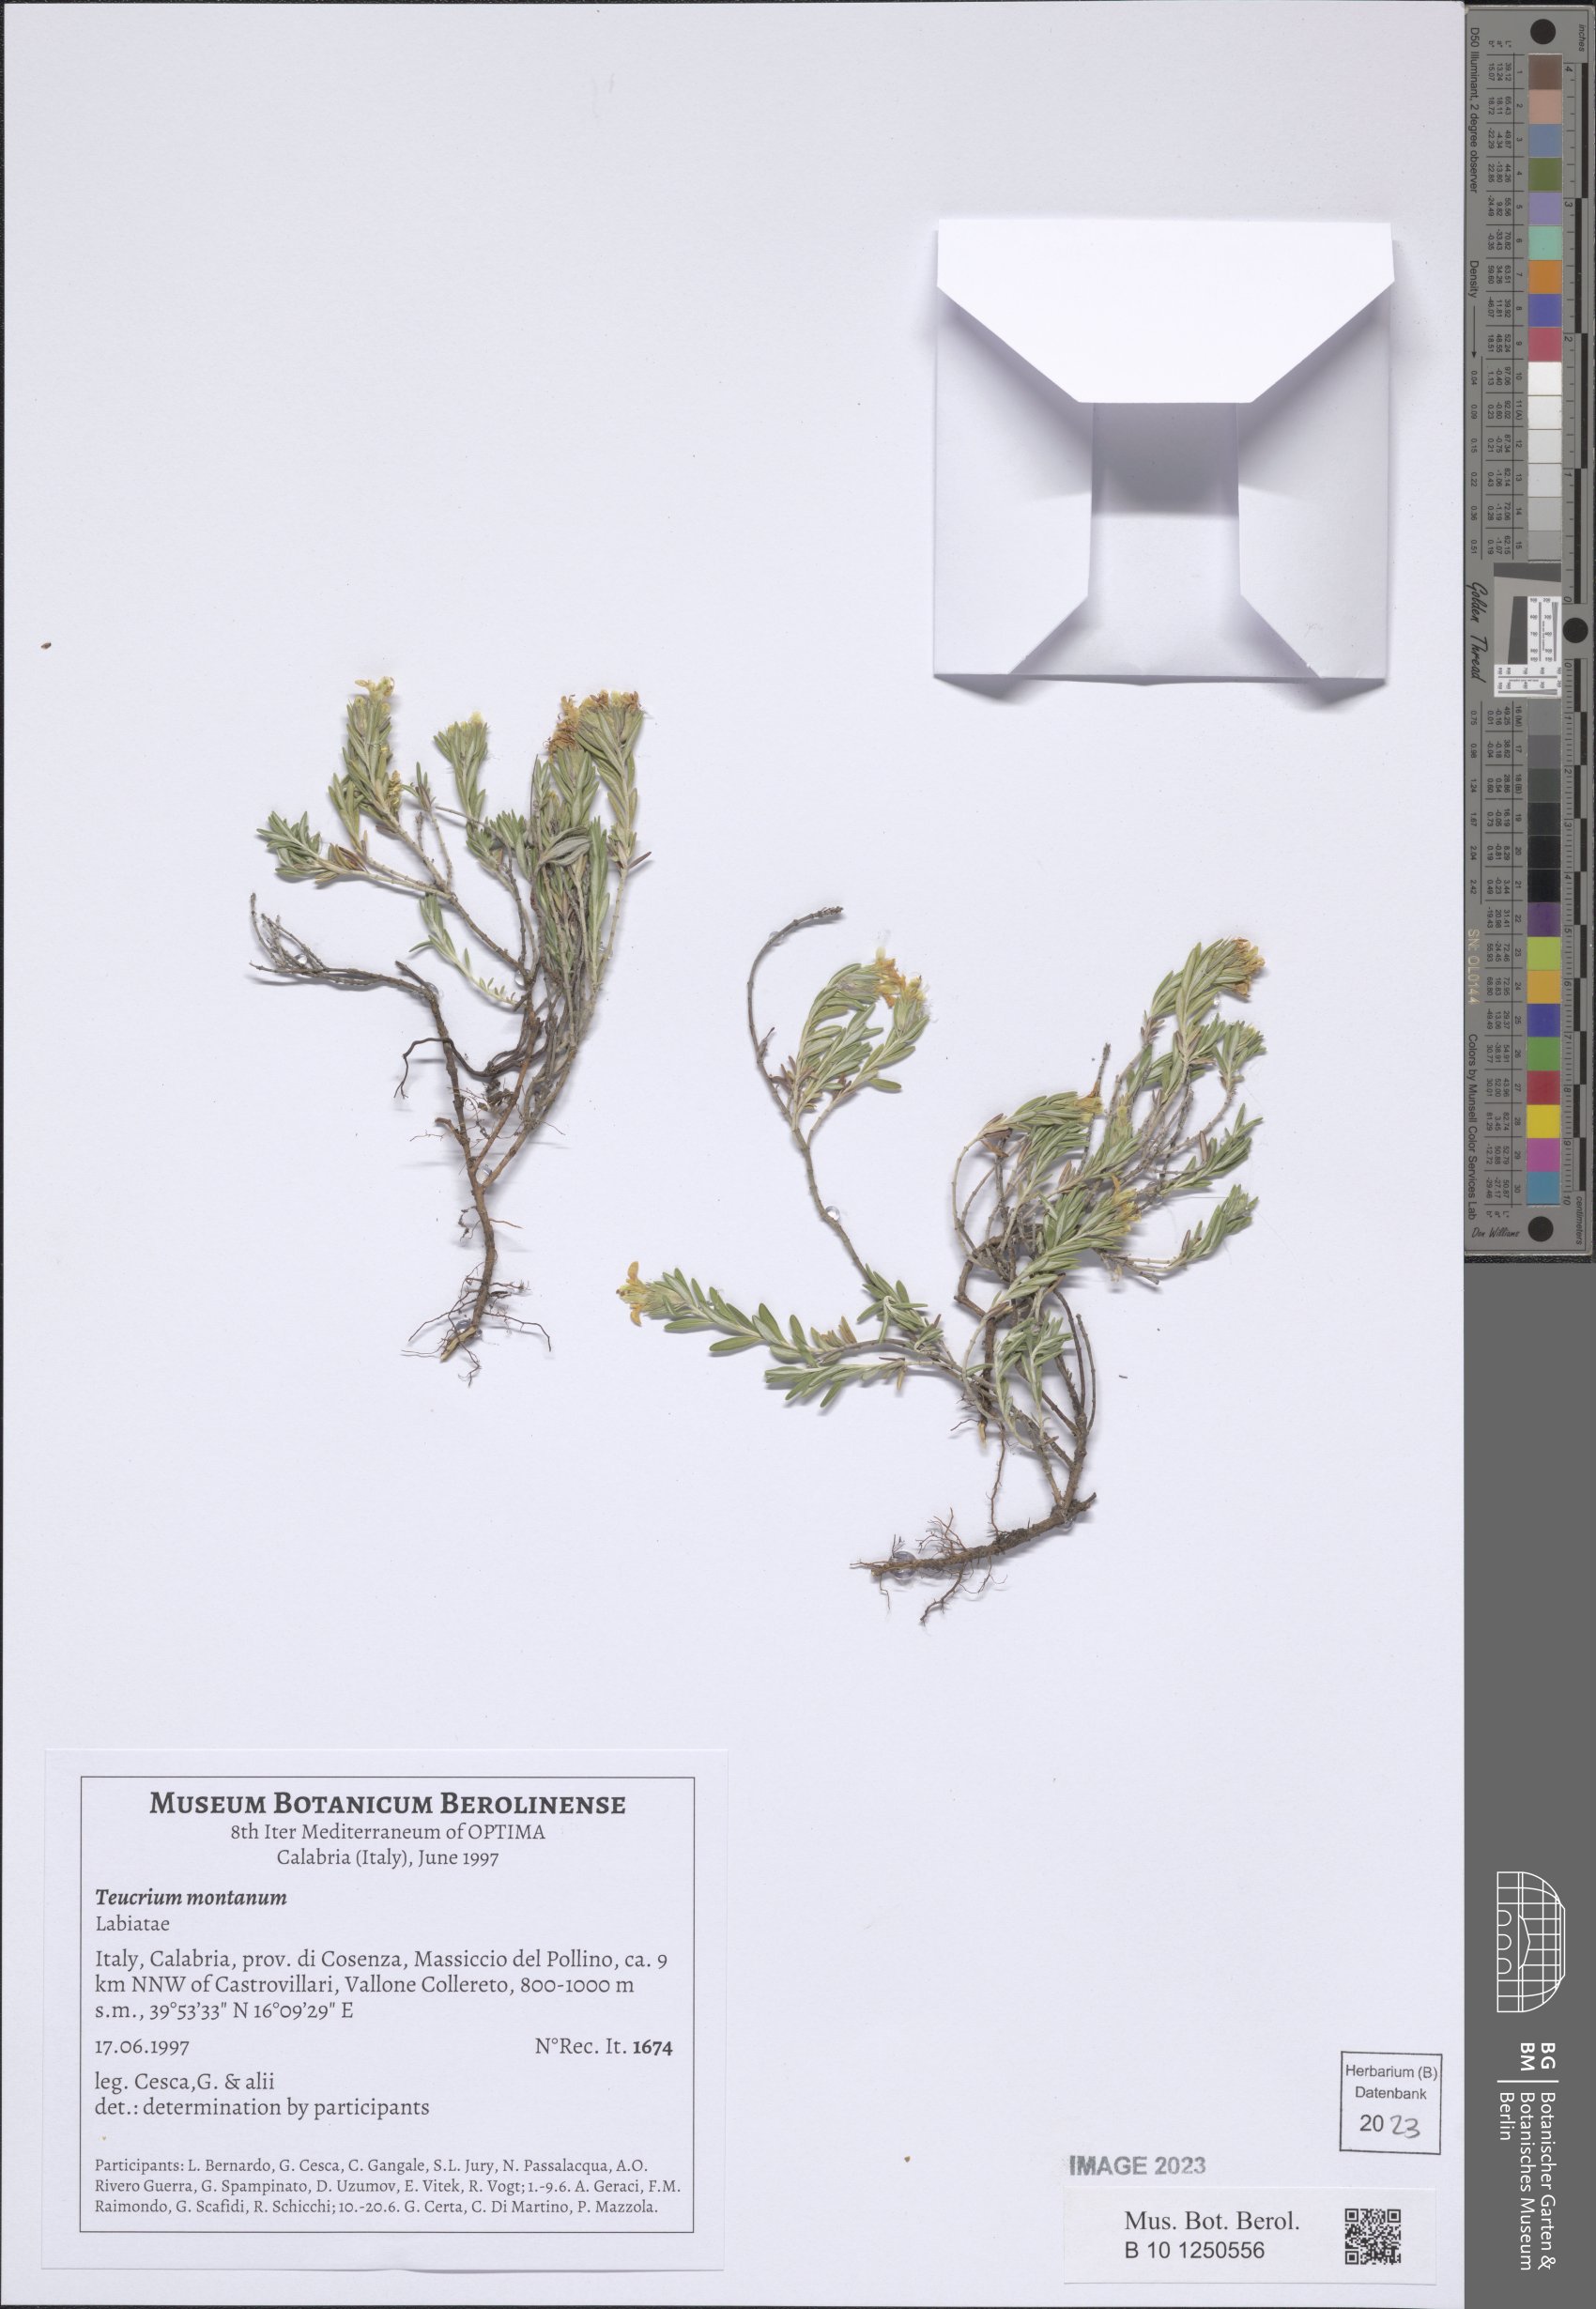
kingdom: Plantae
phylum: Tracheophyta
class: Magnoliopsida
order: Lamiales
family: Lamiaceae
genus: Teucrium
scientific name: Teucrium montanum
